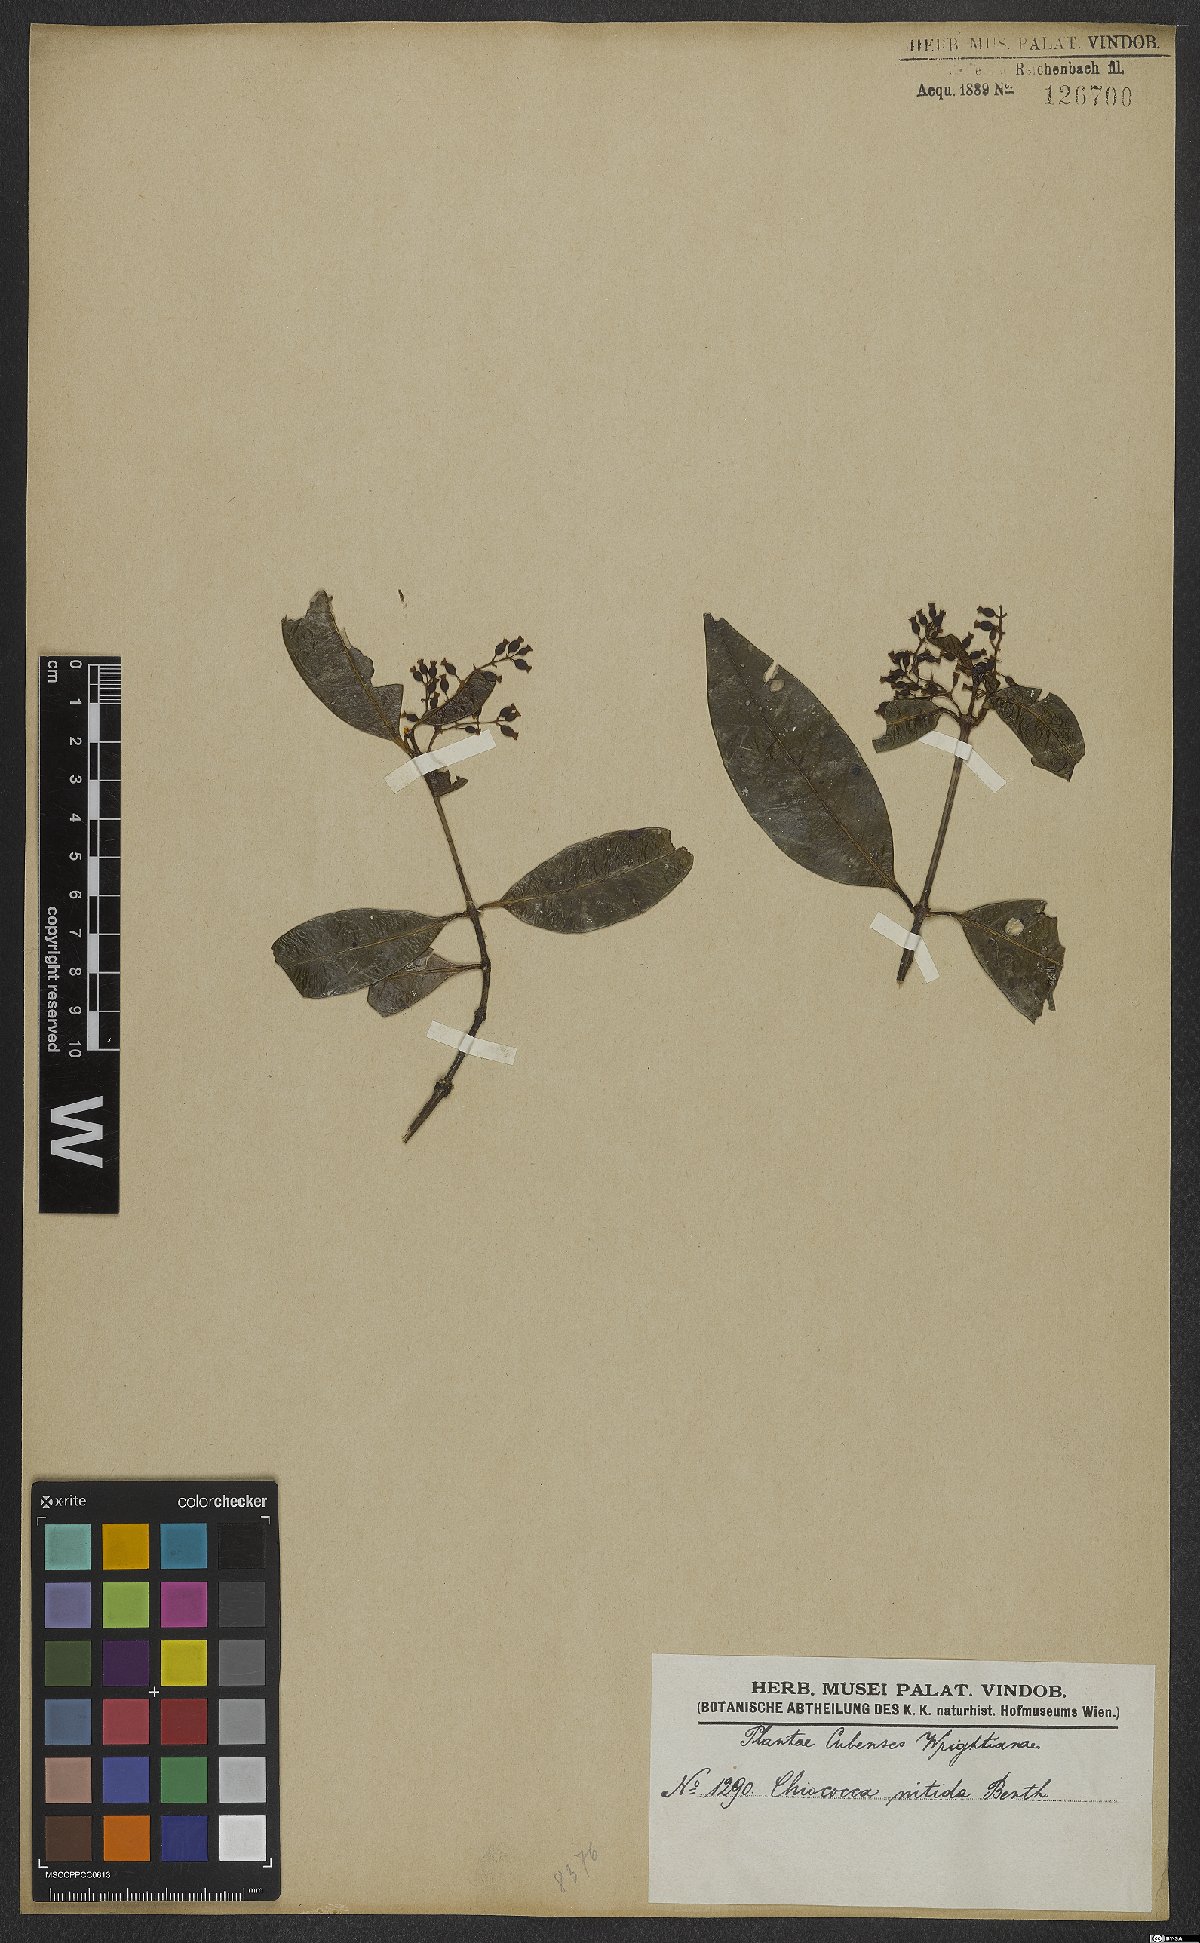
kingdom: Plantae
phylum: Tracheophyta
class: Magnoliopsida
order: Gentianales
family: Rubiaceae
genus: Chiococca
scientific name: Chiococca nitida
